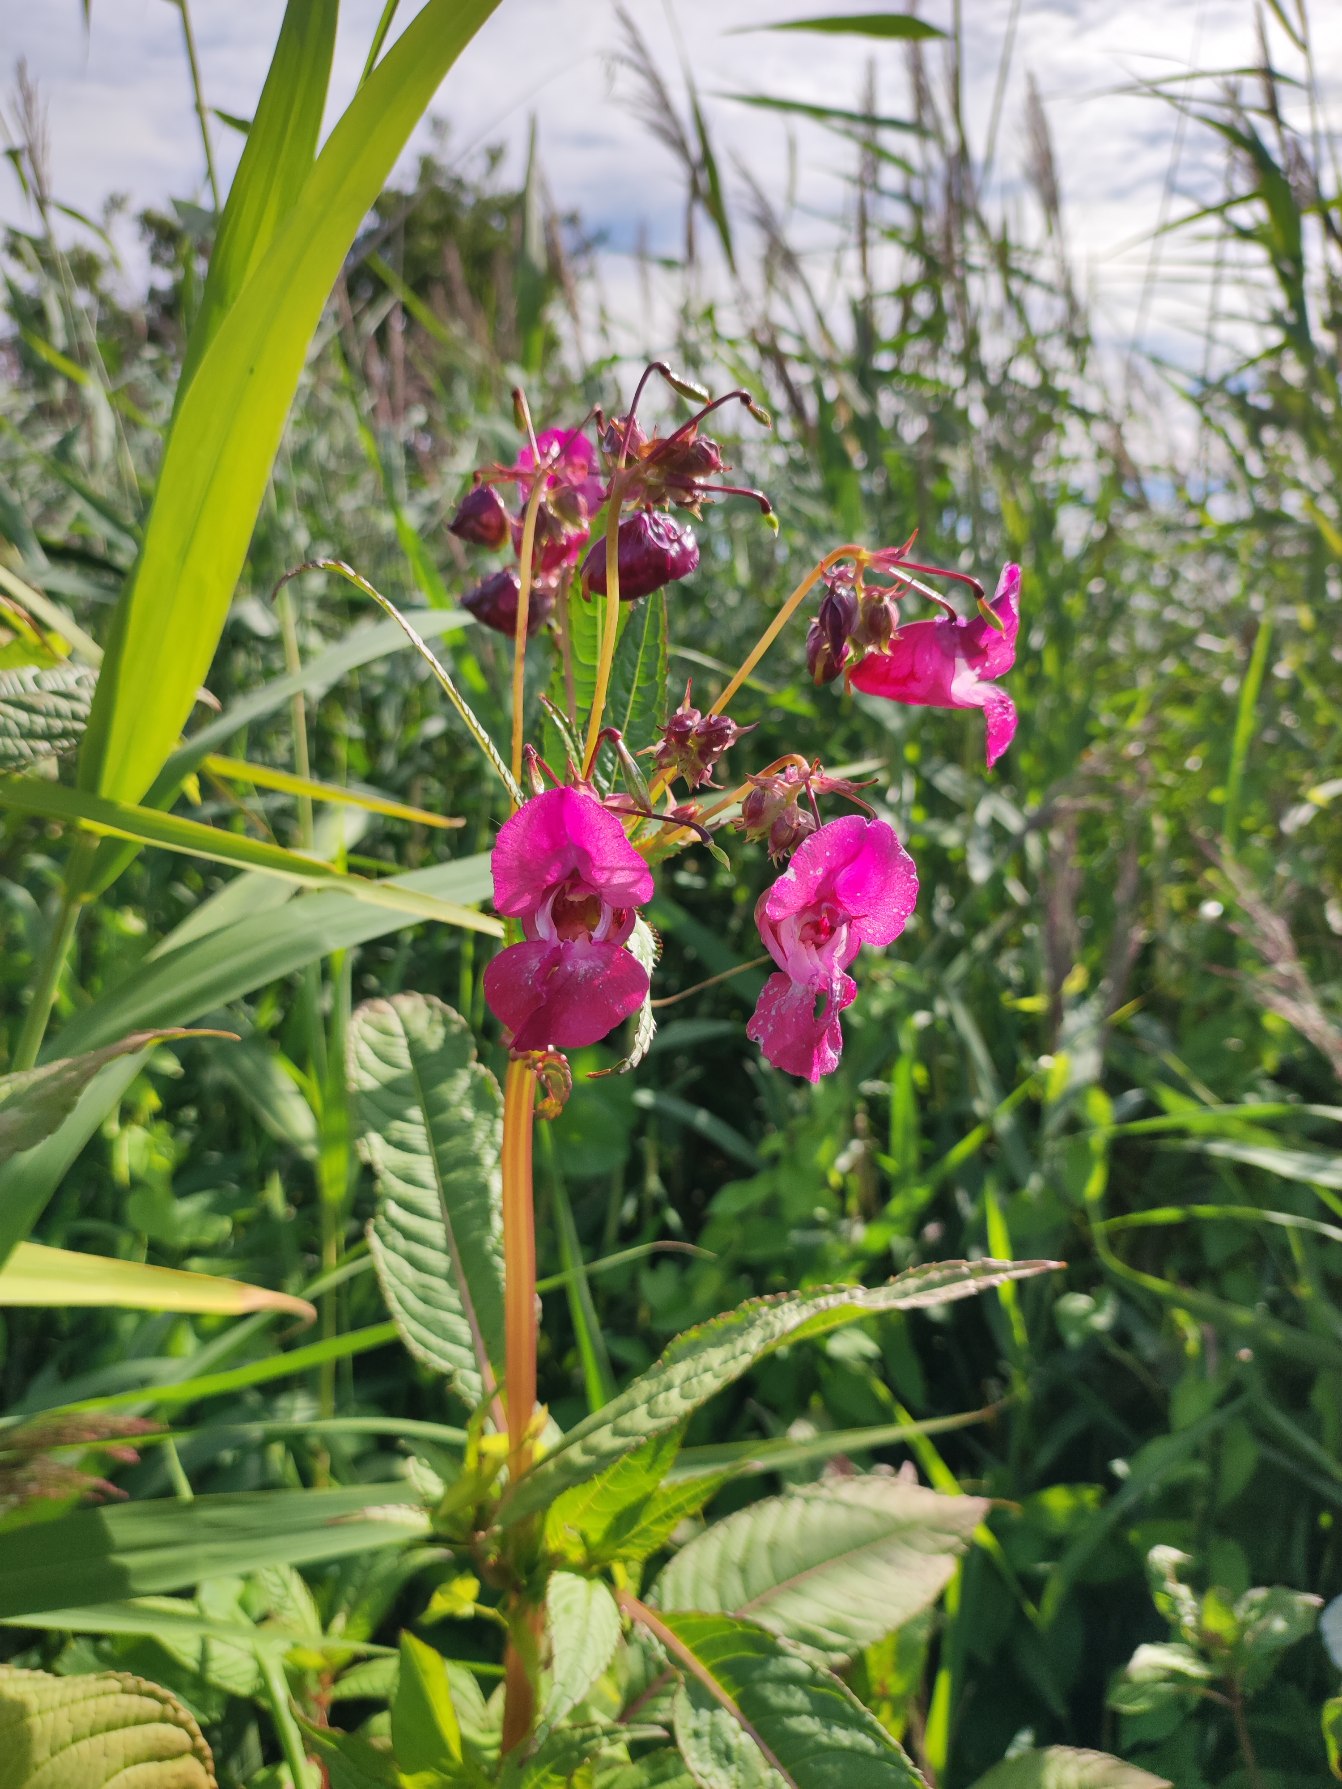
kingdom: Plantae
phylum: Tracheophyta
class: Magnoliopsida
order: Ericales
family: Balsaminaceae
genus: Impatiens
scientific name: Impatiens glandulifera
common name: Kæmpe-balsamin
